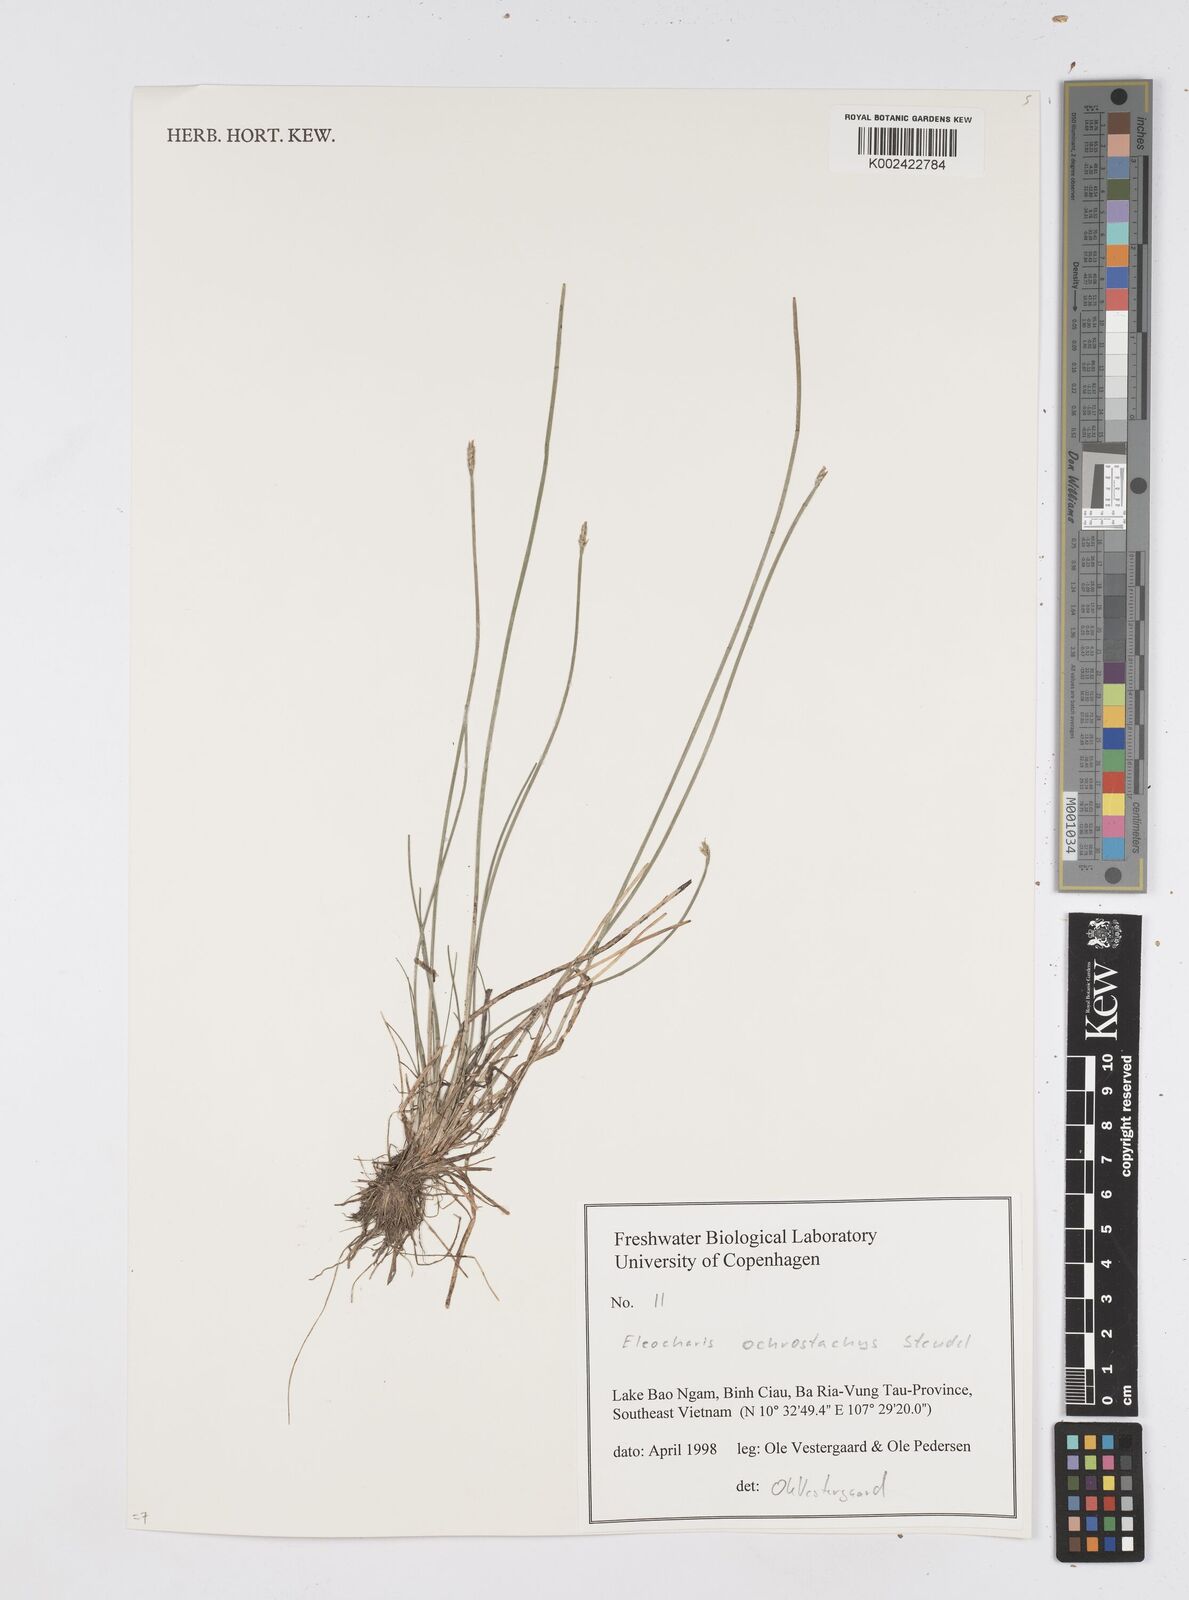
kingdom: Plantae
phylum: Tracheophyta
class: Liliopsida
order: Poales
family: Cyperaceae
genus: Eleocharis
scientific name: Eleocharis ochrostachys
